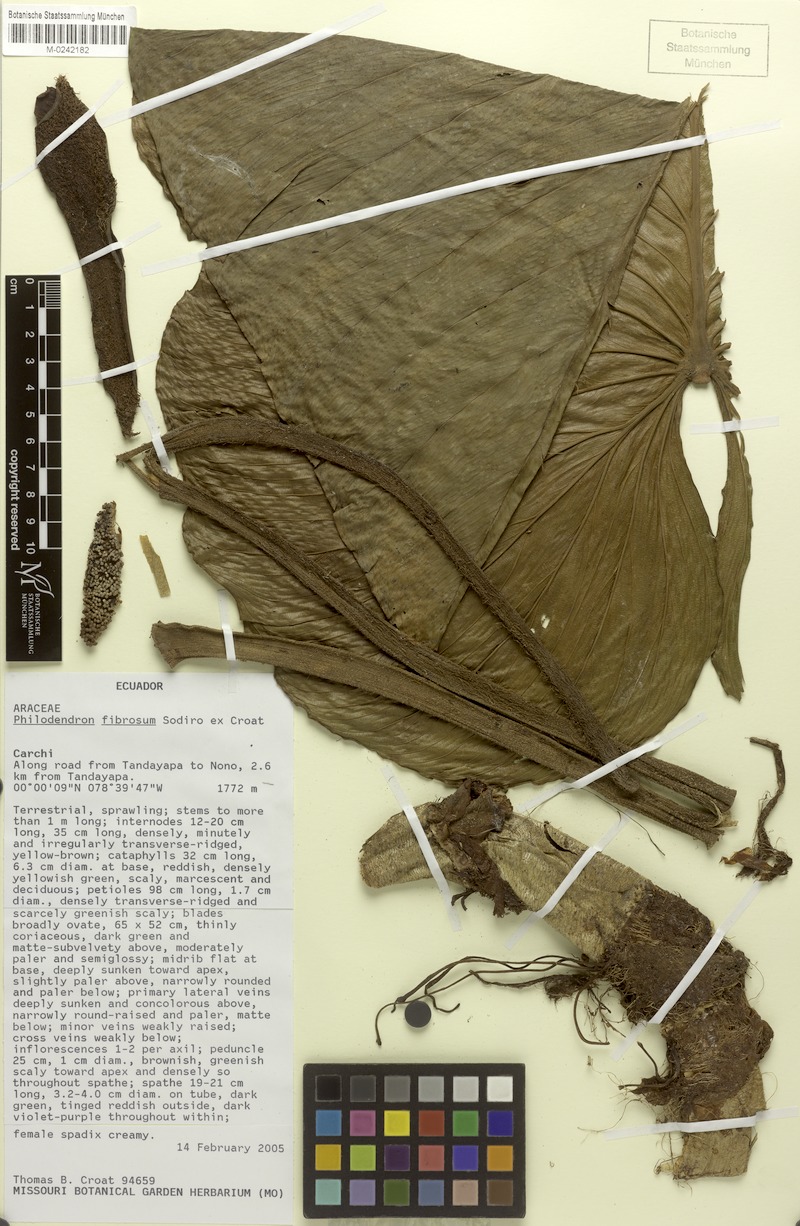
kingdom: Plantae
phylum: Tracheophyta
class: Liliopsida
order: Alismatales
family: Araceae
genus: Philodendron
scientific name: Philodendron fibrosum
